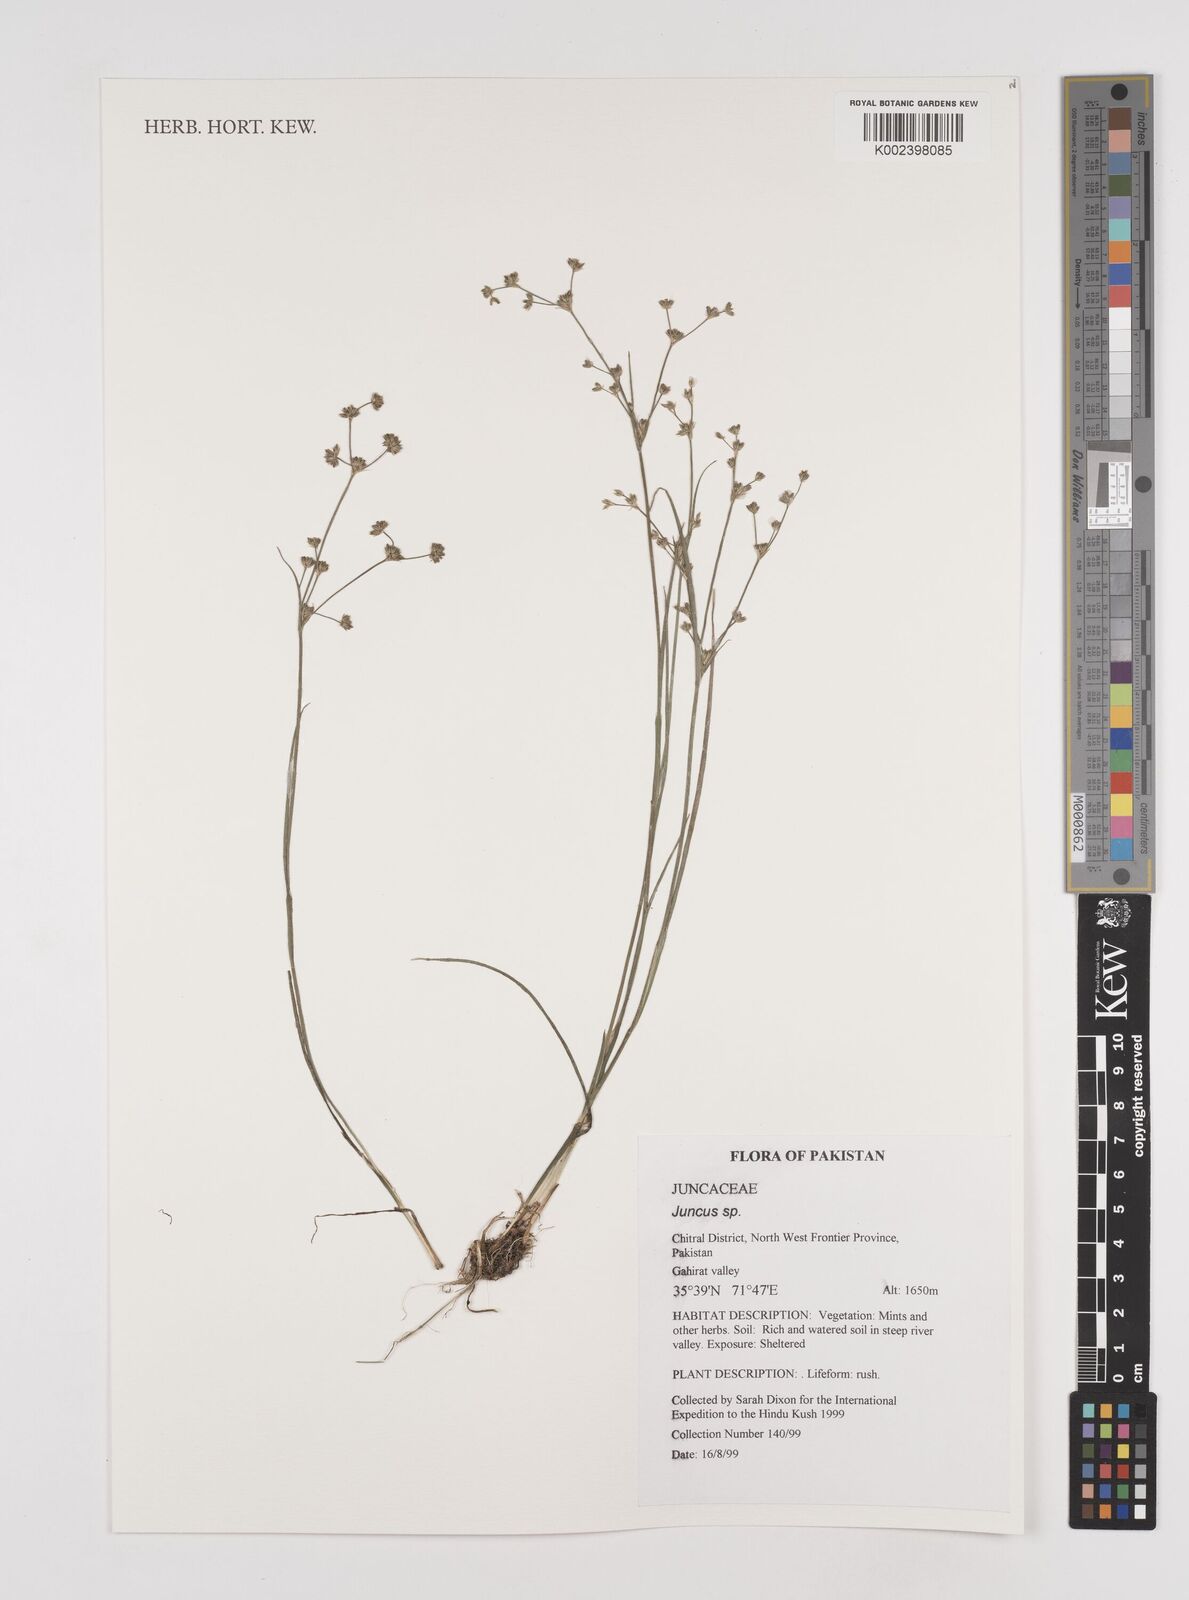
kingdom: Plantae
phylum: Tracheophyta
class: Liliopsida
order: Poales
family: Juncaceae
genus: Juncus
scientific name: Juncus
